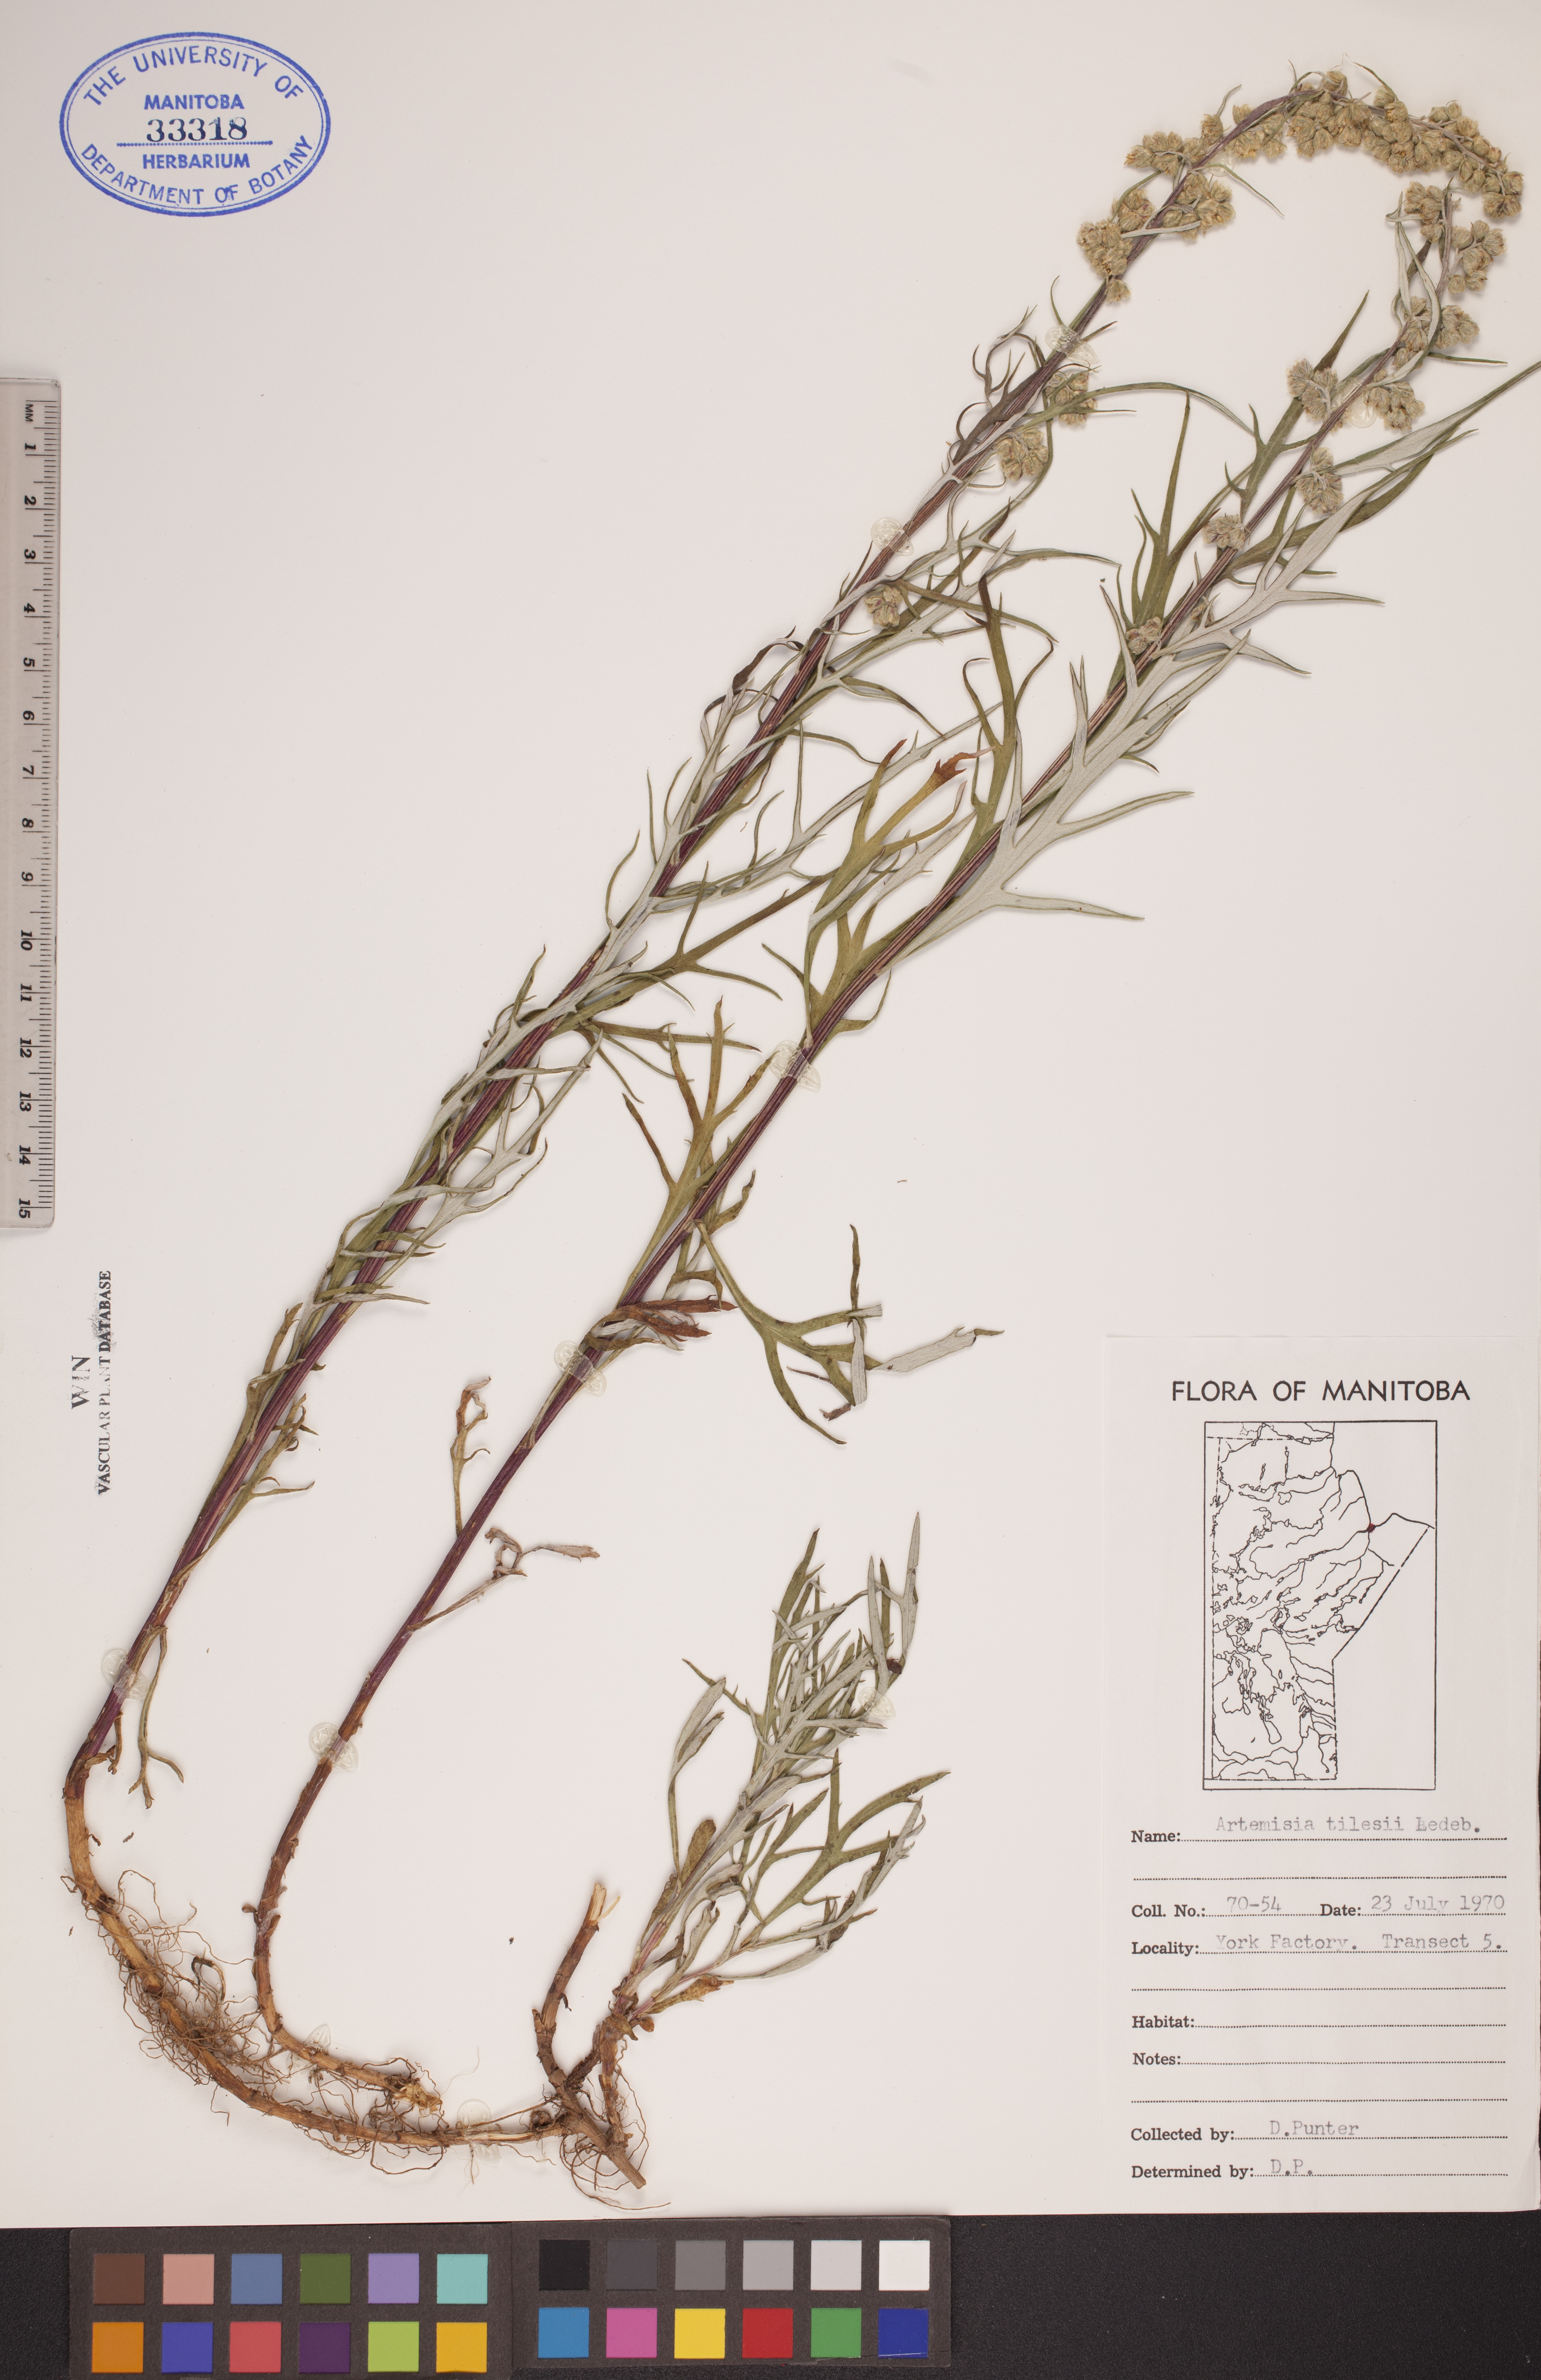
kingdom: Plantae
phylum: Tracheophyta
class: Magnoliopsida
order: Asterales
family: Asteraceae
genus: Artemisia
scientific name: Artemisia tilesii
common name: Aleutian mugwort
